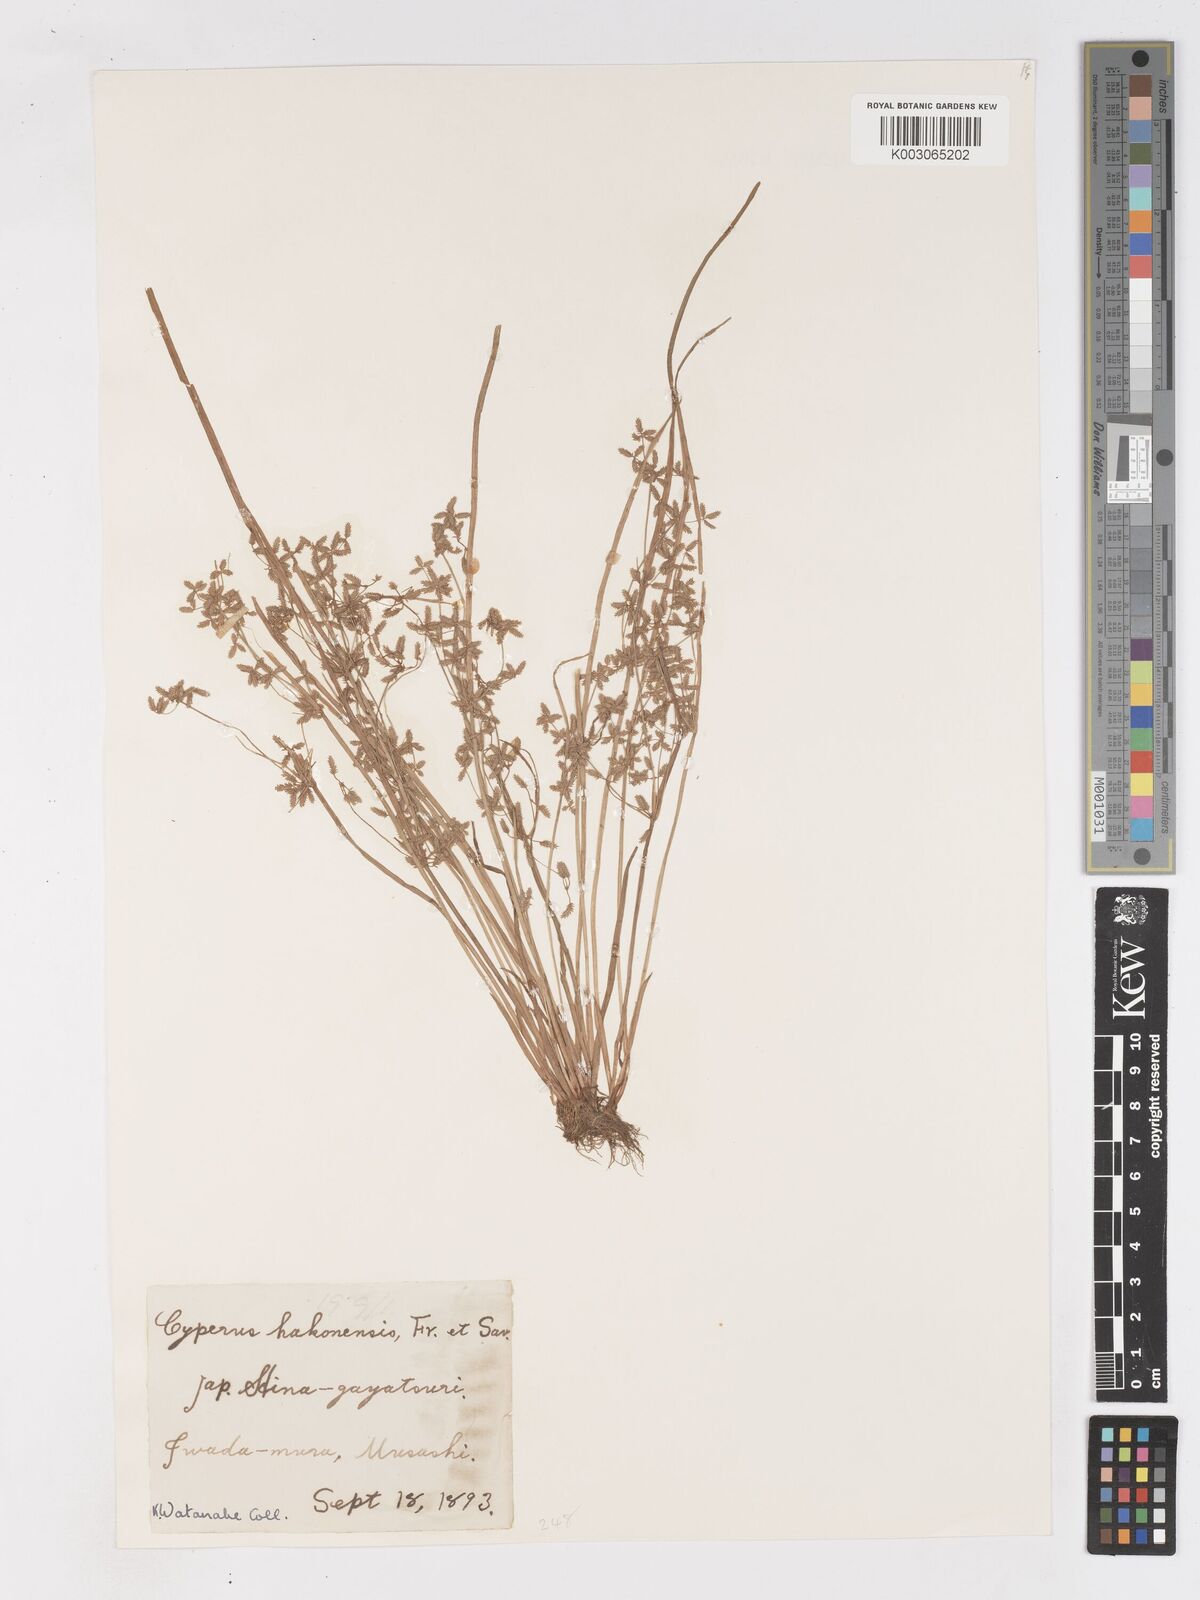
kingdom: Plantae
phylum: Tracheophyta
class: Liliopsida
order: Poales
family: Cyperaceae
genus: Cyperus
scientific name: Cyperus flaccidus
